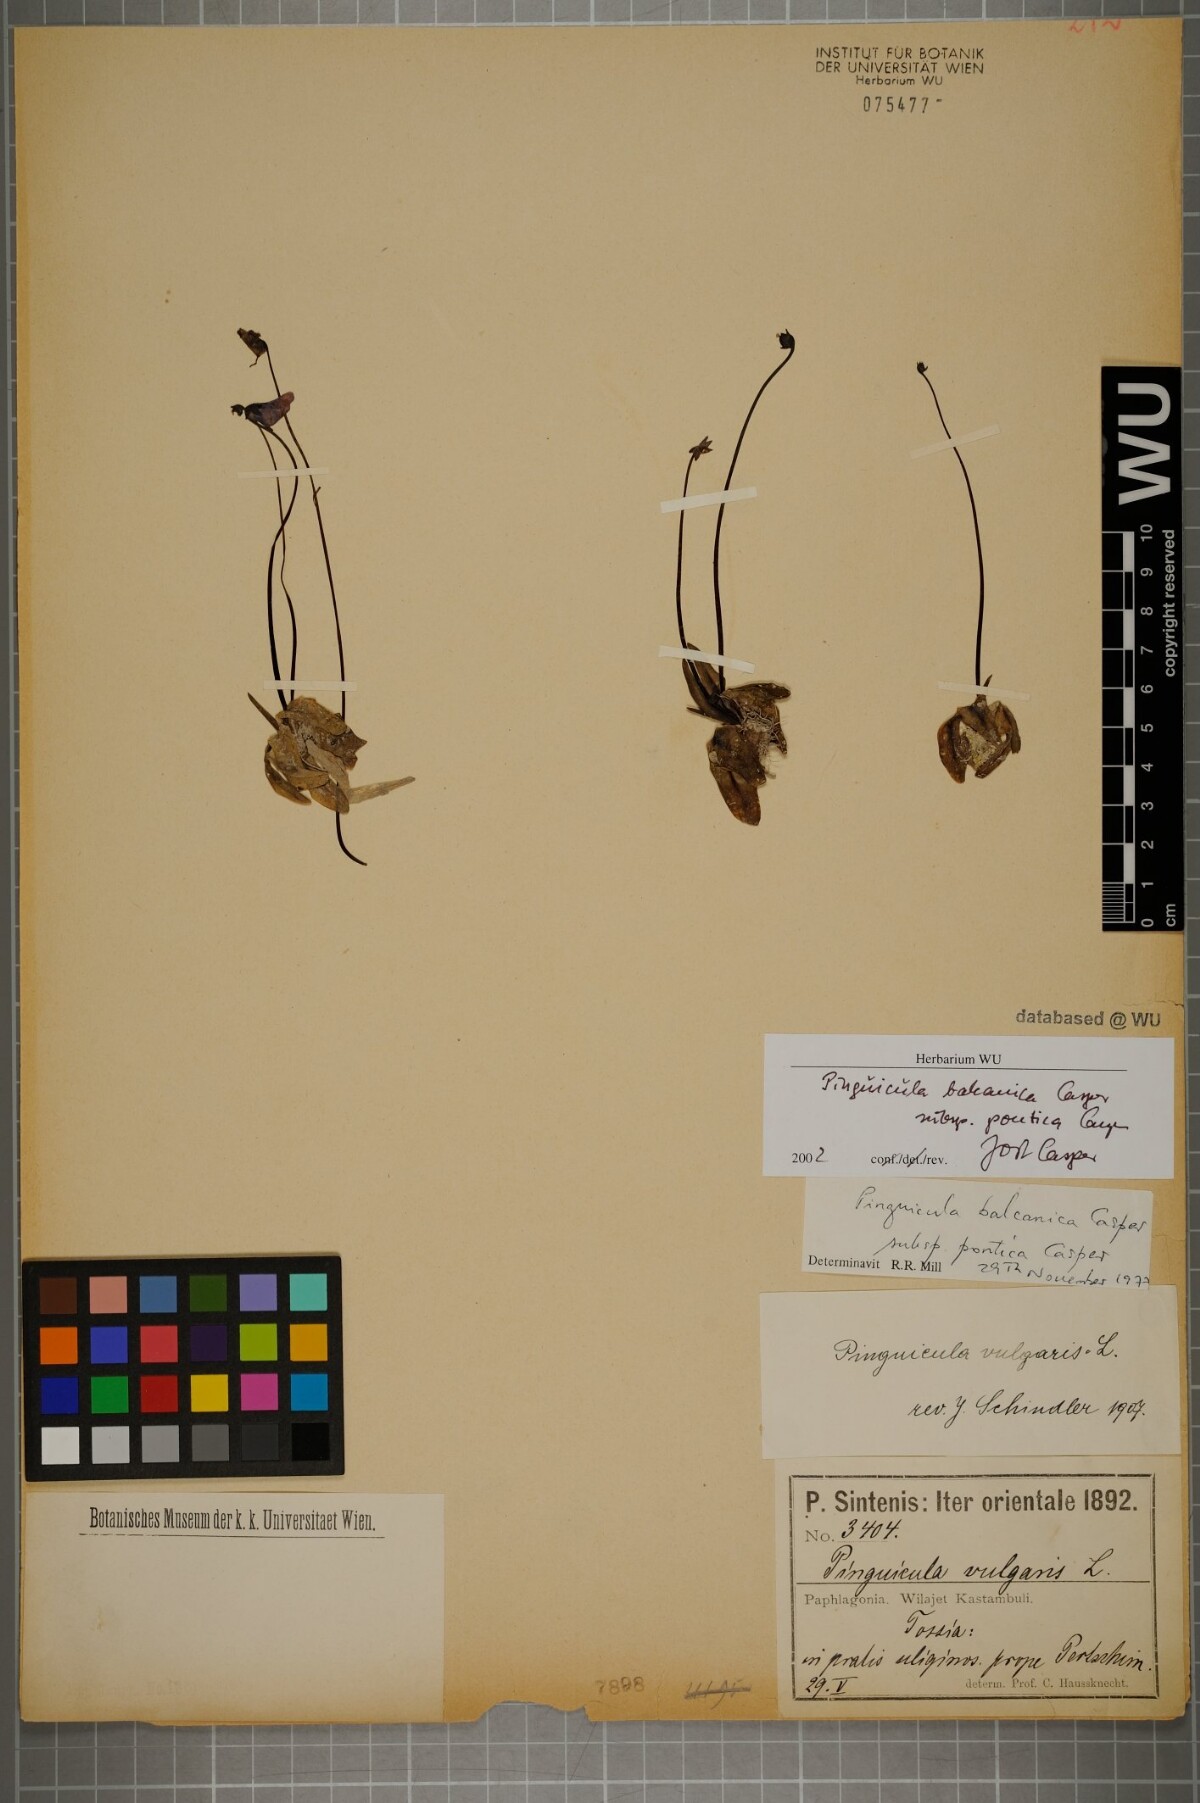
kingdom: Plantae
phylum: Tracheophyta
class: Magnoliopsida
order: Lamiales
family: Lentibulariaceae
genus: Pinguicula
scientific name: Pinguicula balcanica
